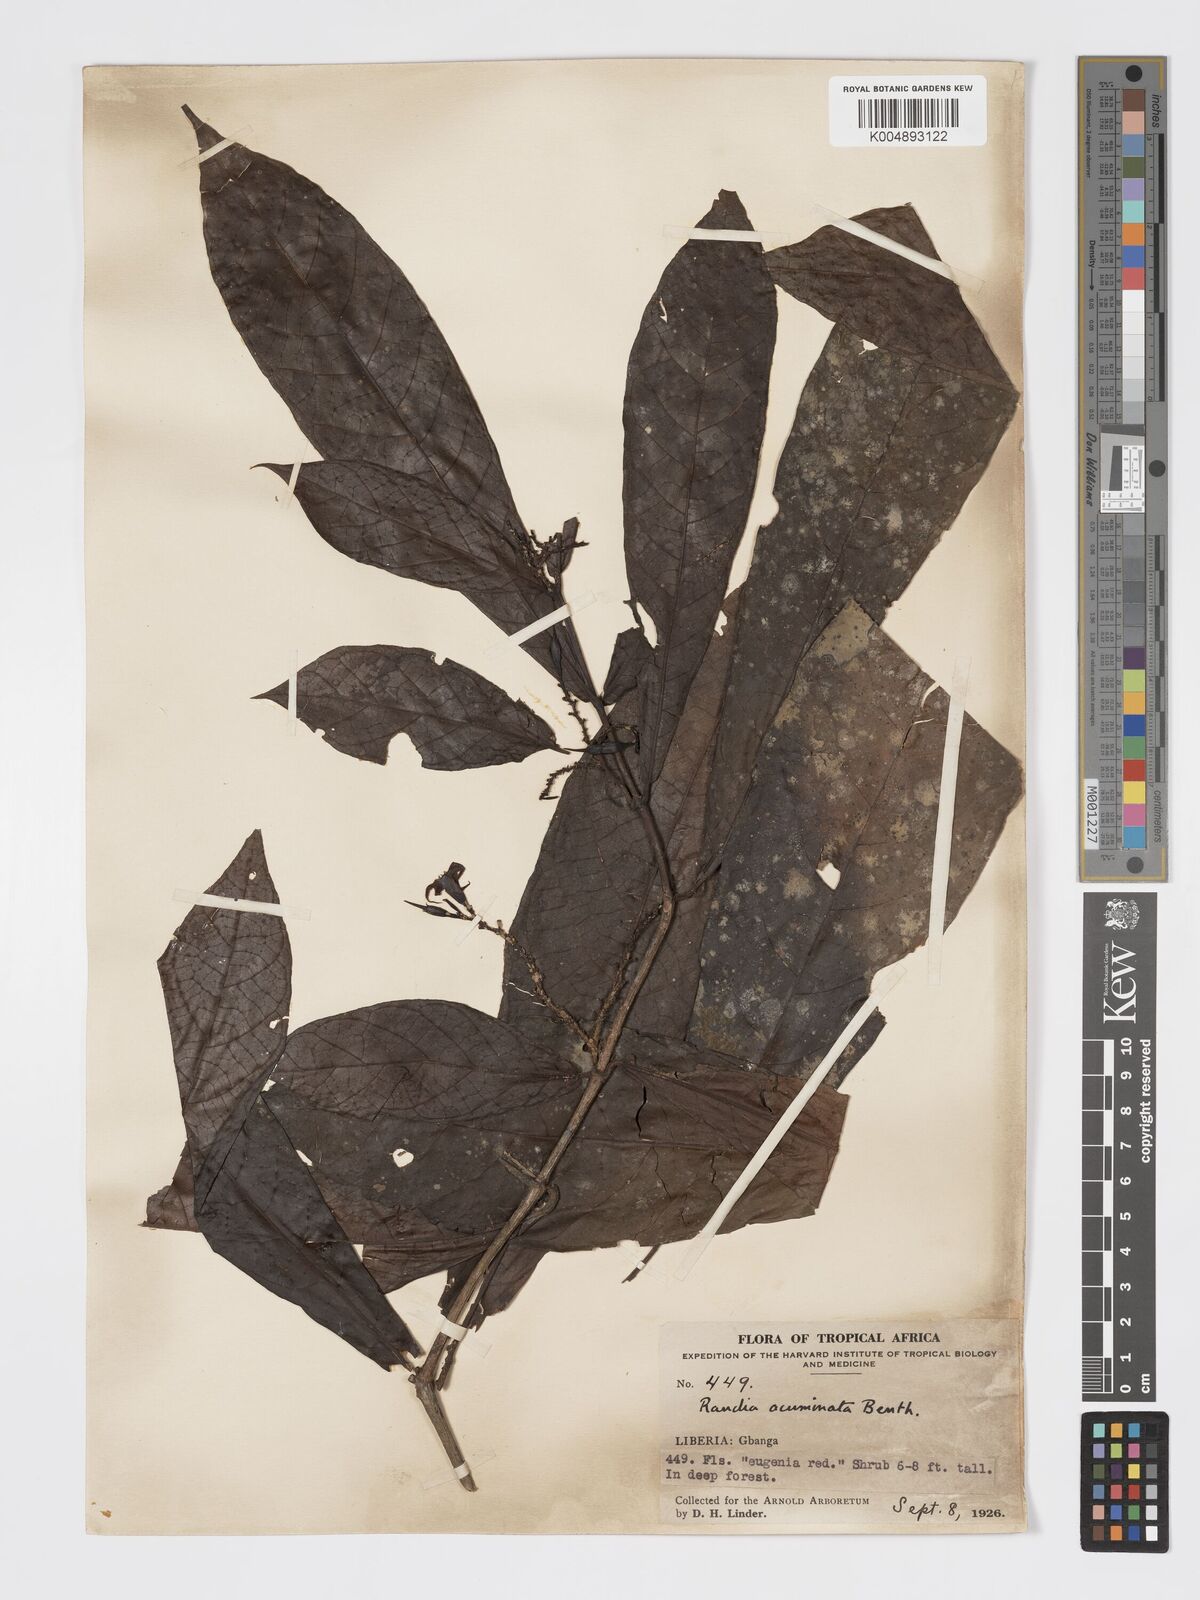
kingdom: Plantae
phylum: Tracheophyta
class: Magnoliopsida
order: Gentianales
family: Rubiaceae
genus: Massularia
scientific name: Massularia acuminata
